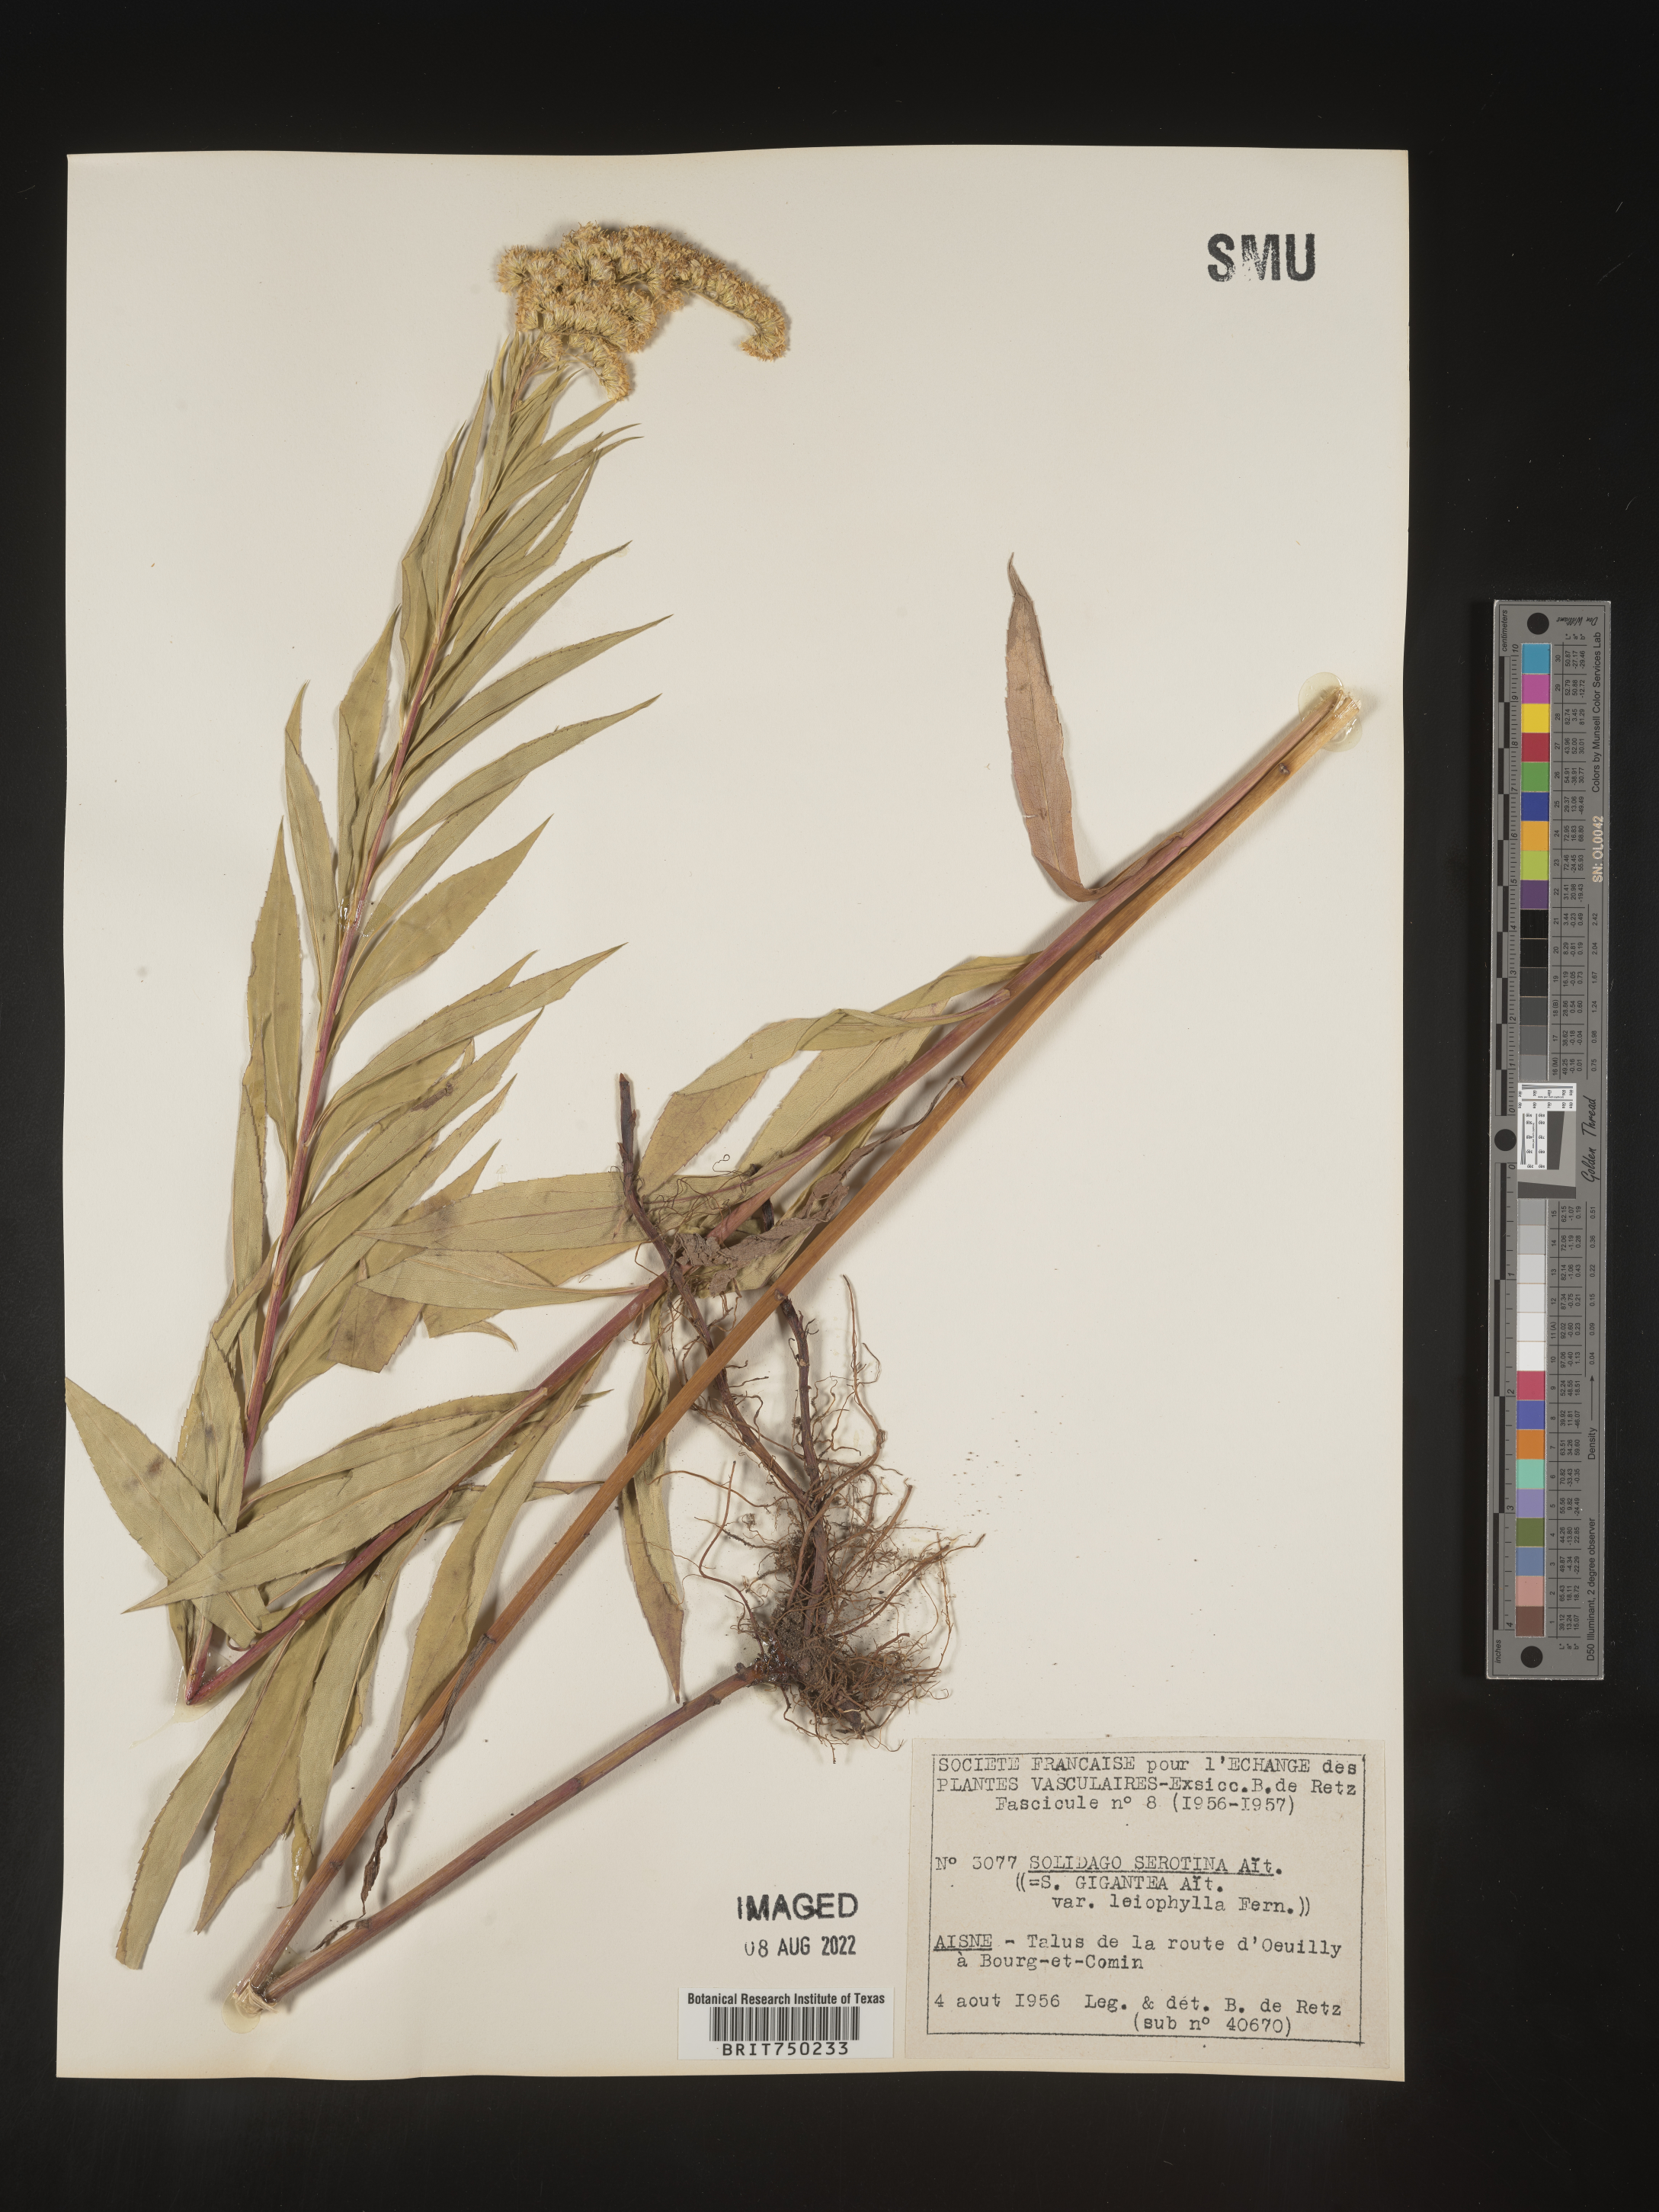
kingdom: Plantae
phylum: Tracheophyta
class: Magnoliopsida
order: Asterales
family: Asteraceae
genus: Solidago
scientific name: Solidago
